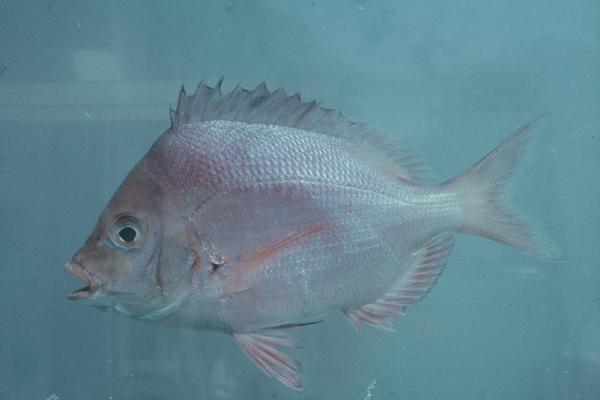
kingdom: Animalia
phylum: Chordata
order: Perciformes
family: Sparidae
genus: Chrysoblephus
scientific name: Chrysoblephus puniceus
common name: Slinger seabream
